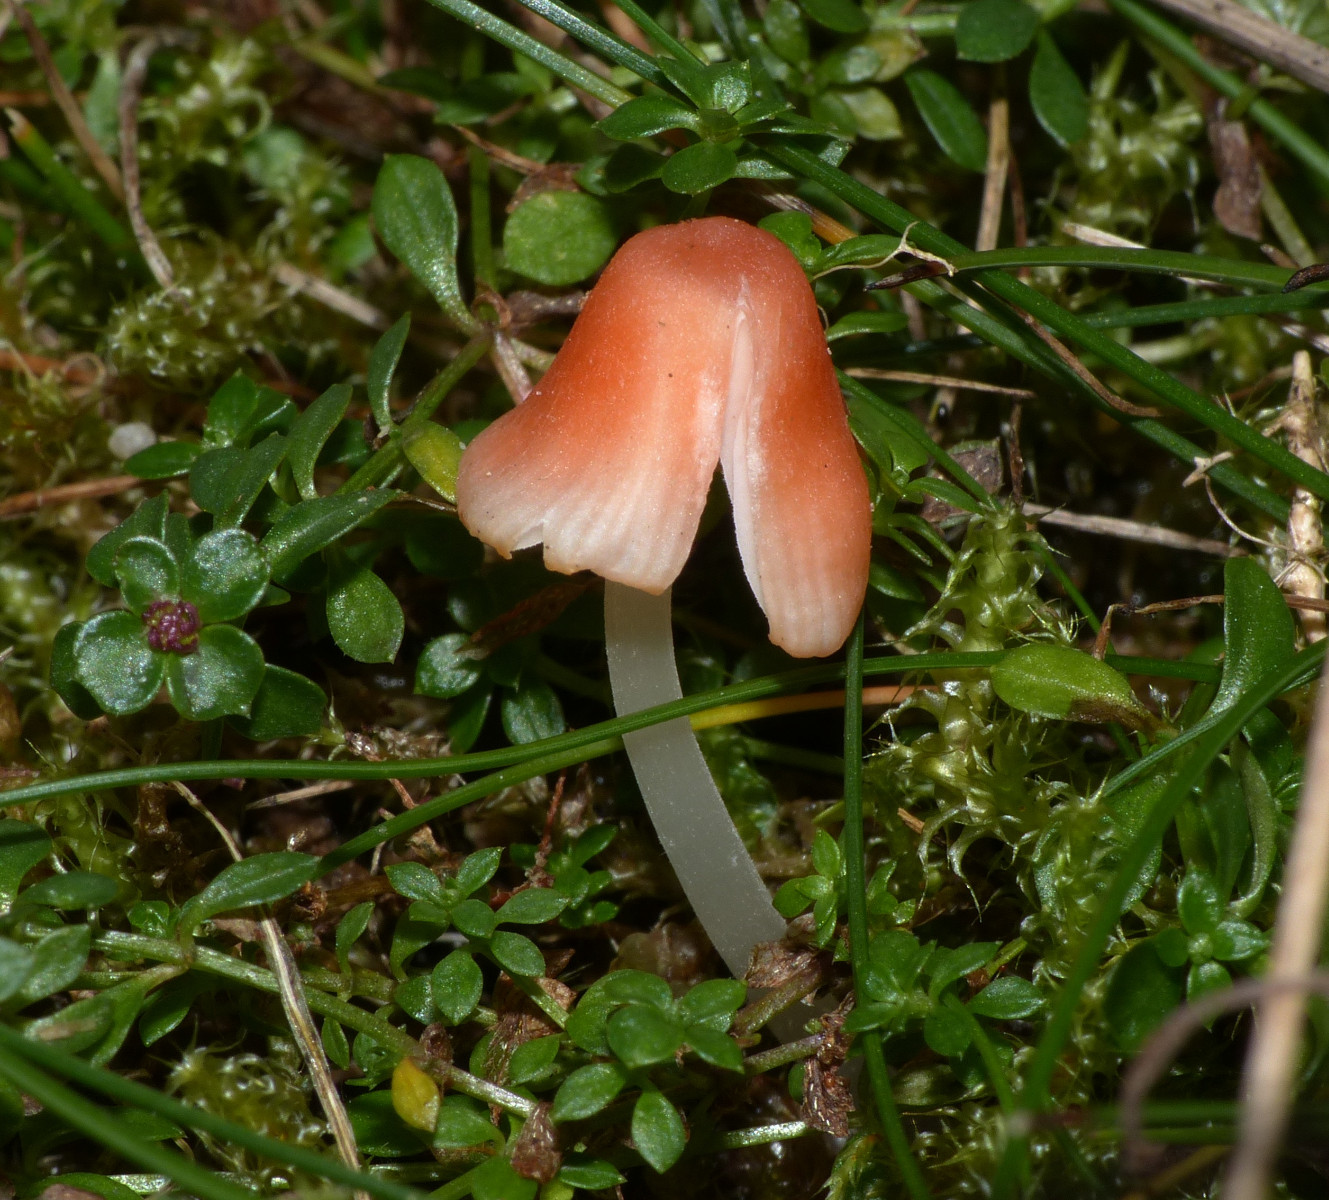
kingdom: Fungi
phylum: Basidiomycota
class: Agaricomycetes
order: Agaricales
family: Mycenaceae
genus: Atheniella
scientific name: Atheniella adonis
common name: rønnerød huesvamp
